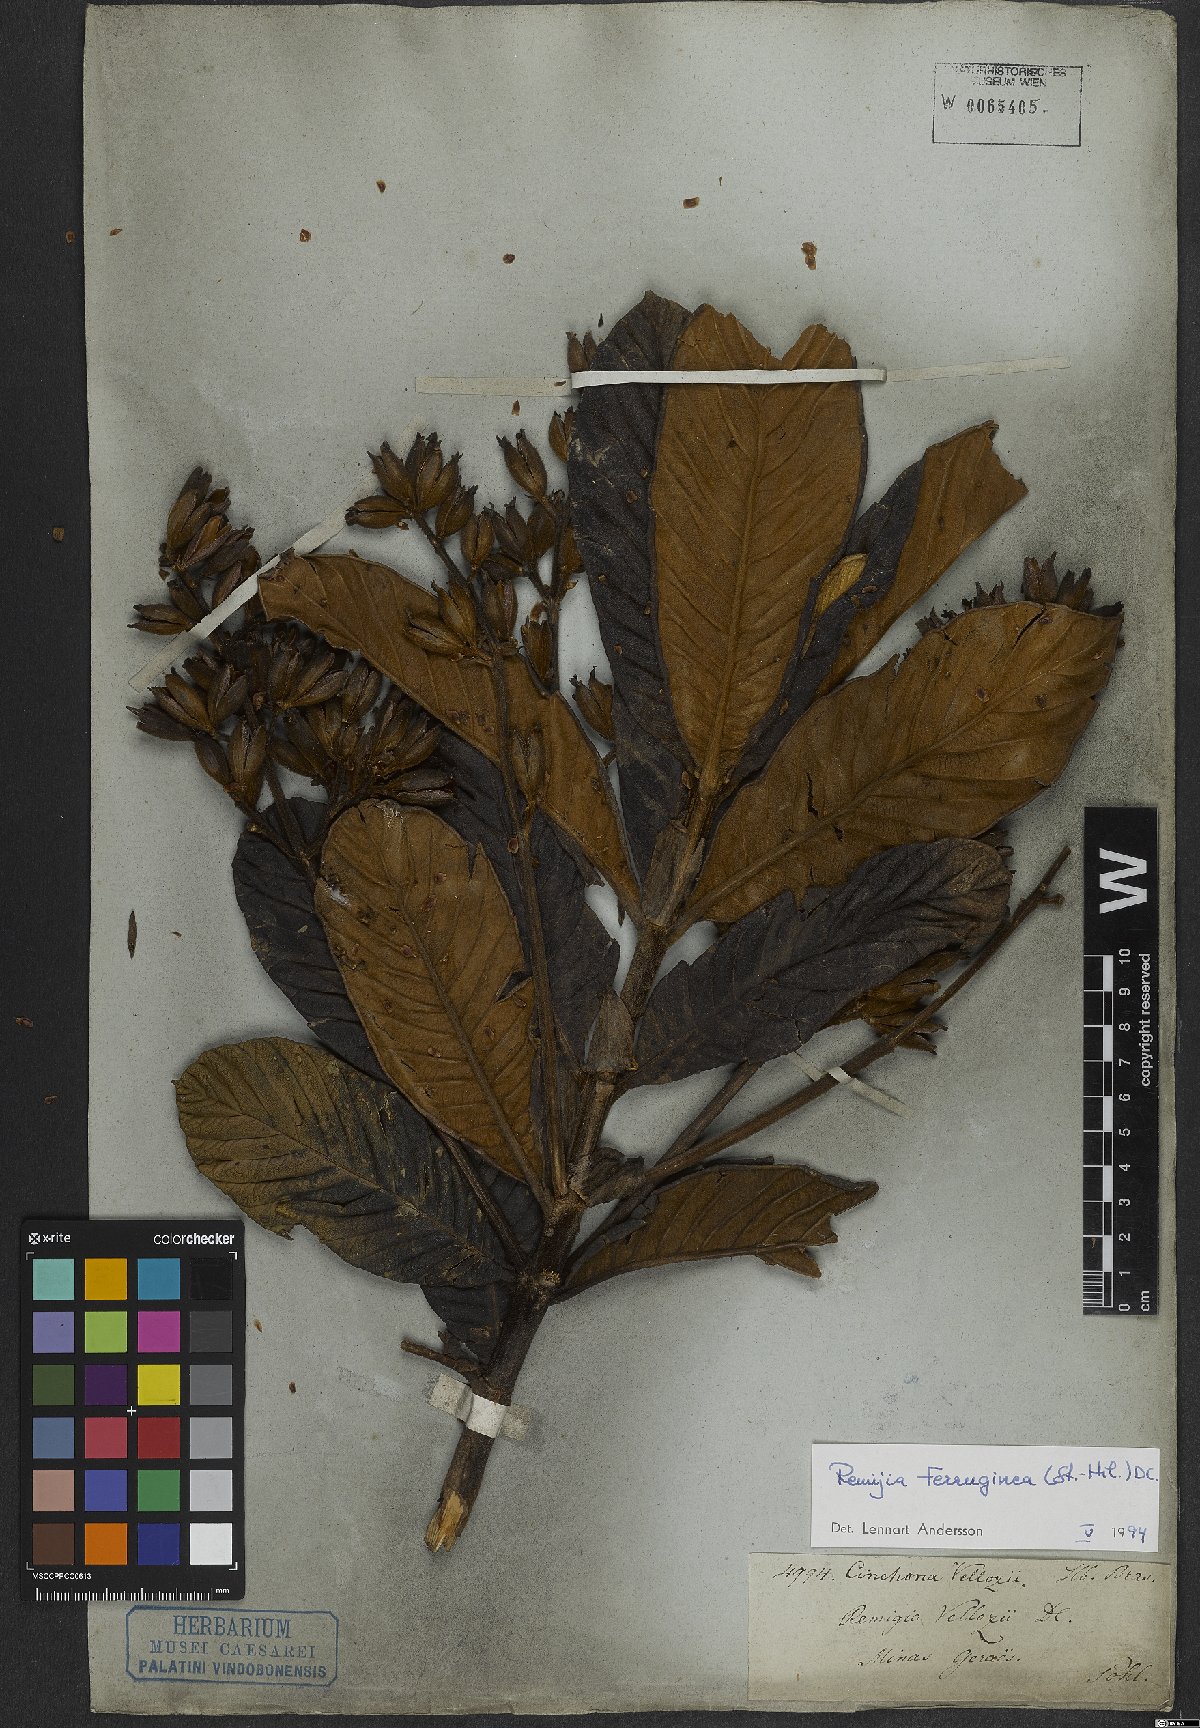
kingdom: Plantae
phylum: Tracheophyta
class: Magnoliopsida
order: Gentianales
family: Rubiaceae
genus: Remijia
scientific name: Remijia ferruginea
